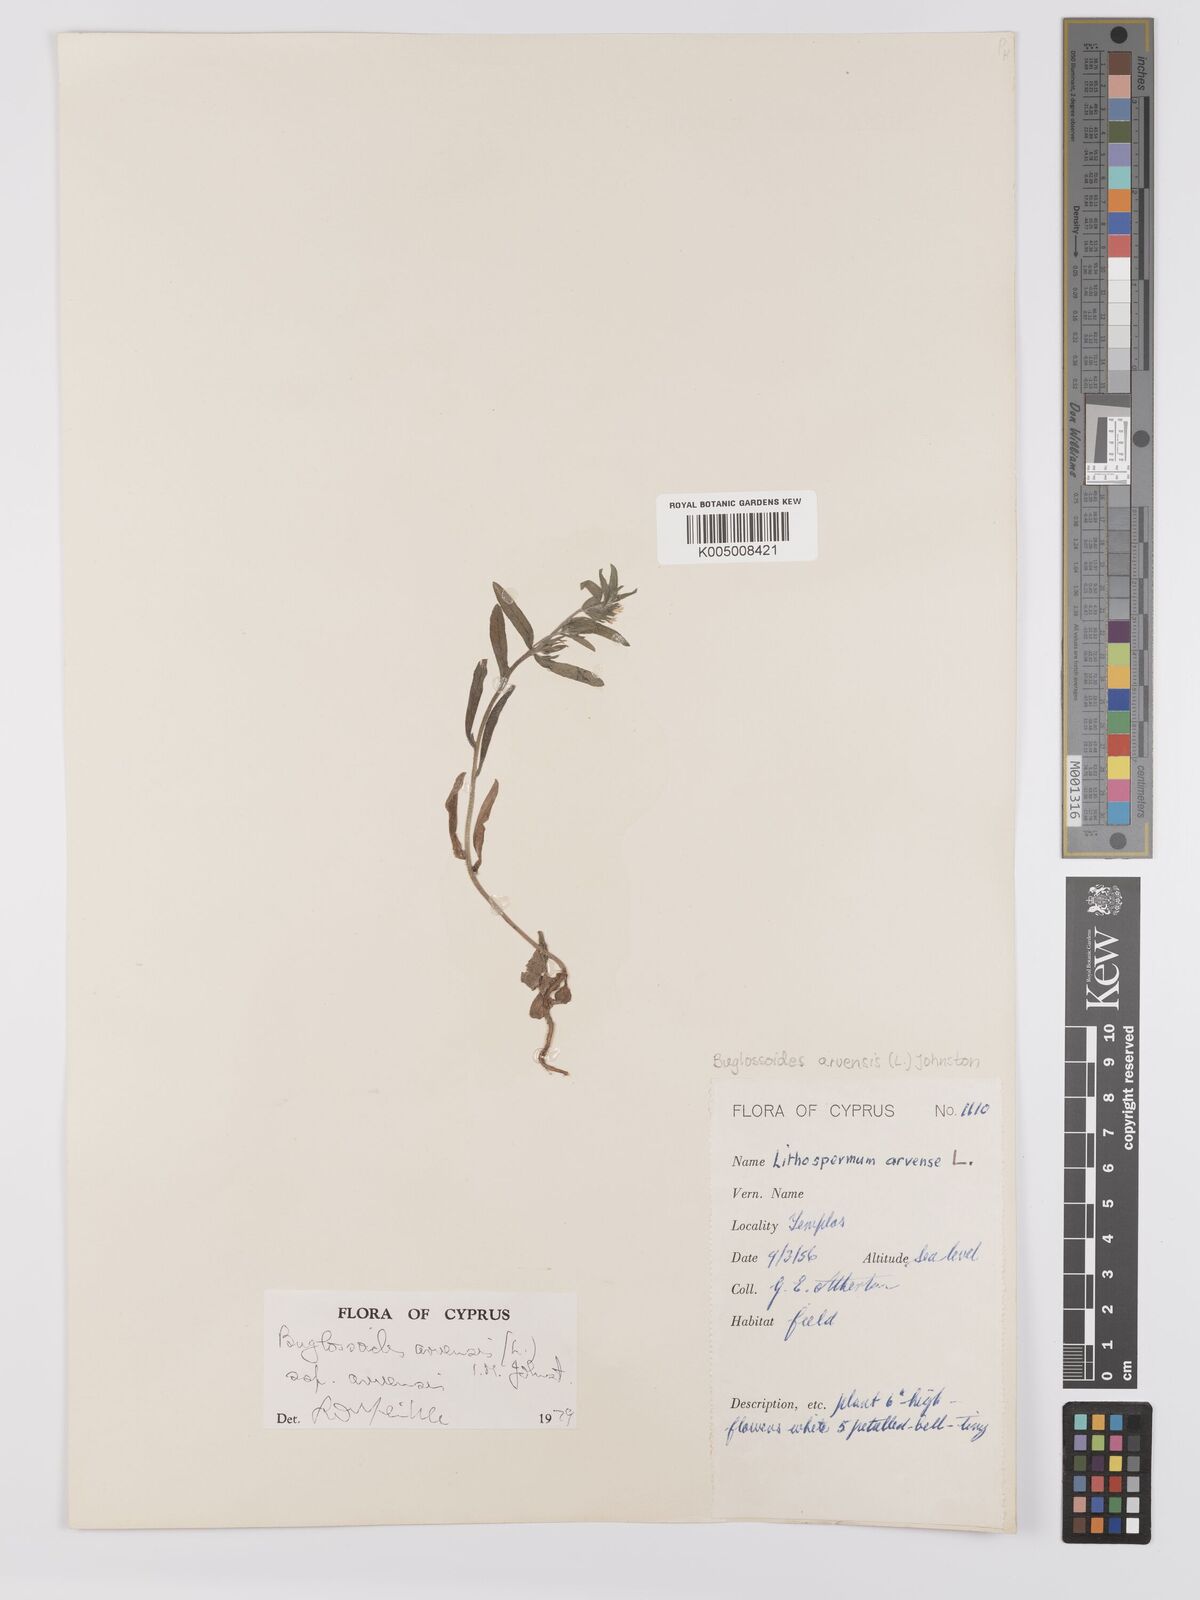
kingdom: Plantae
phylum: Tracheophyta
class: Magnoliopsida
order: Boraginales
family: Boraginaceae
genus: Buglossoides
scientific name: Buglossoides arvensis
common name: Corn gromwell
